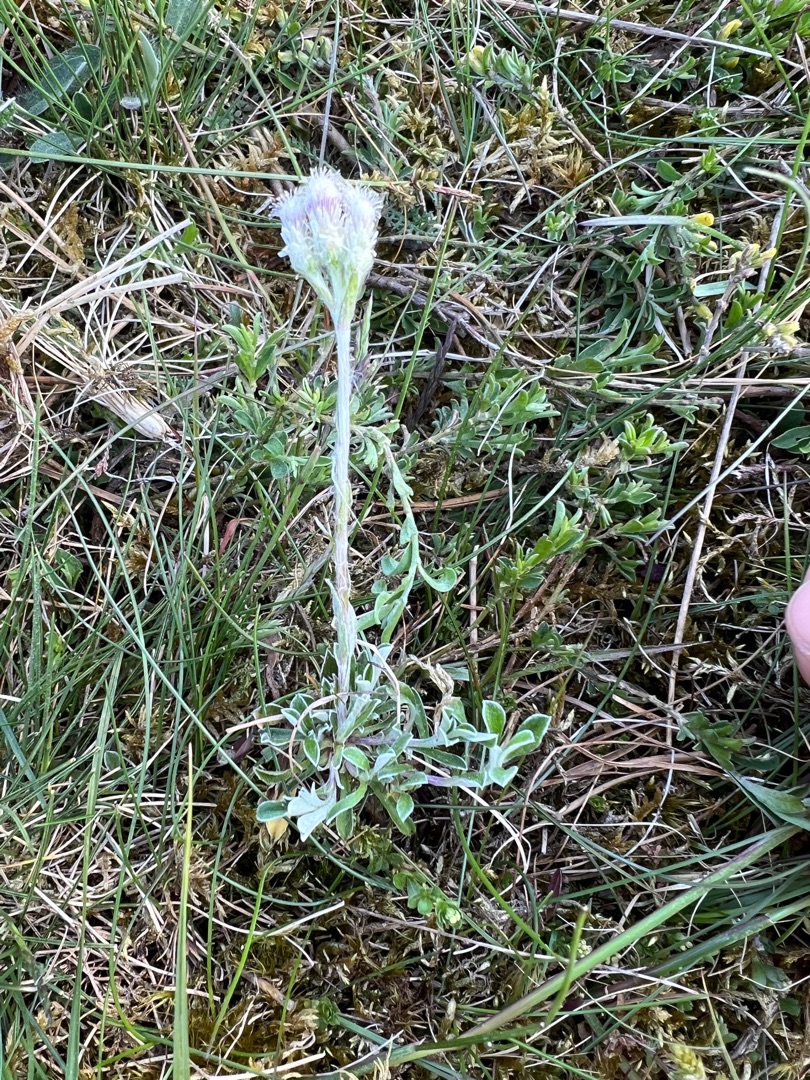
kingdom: Plantae
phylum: Tracheophyta
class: Magnoliopsida
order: Asterales
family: Asteraceae
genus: Antennaria
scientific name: Antennaria dioica
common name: Kattefod
